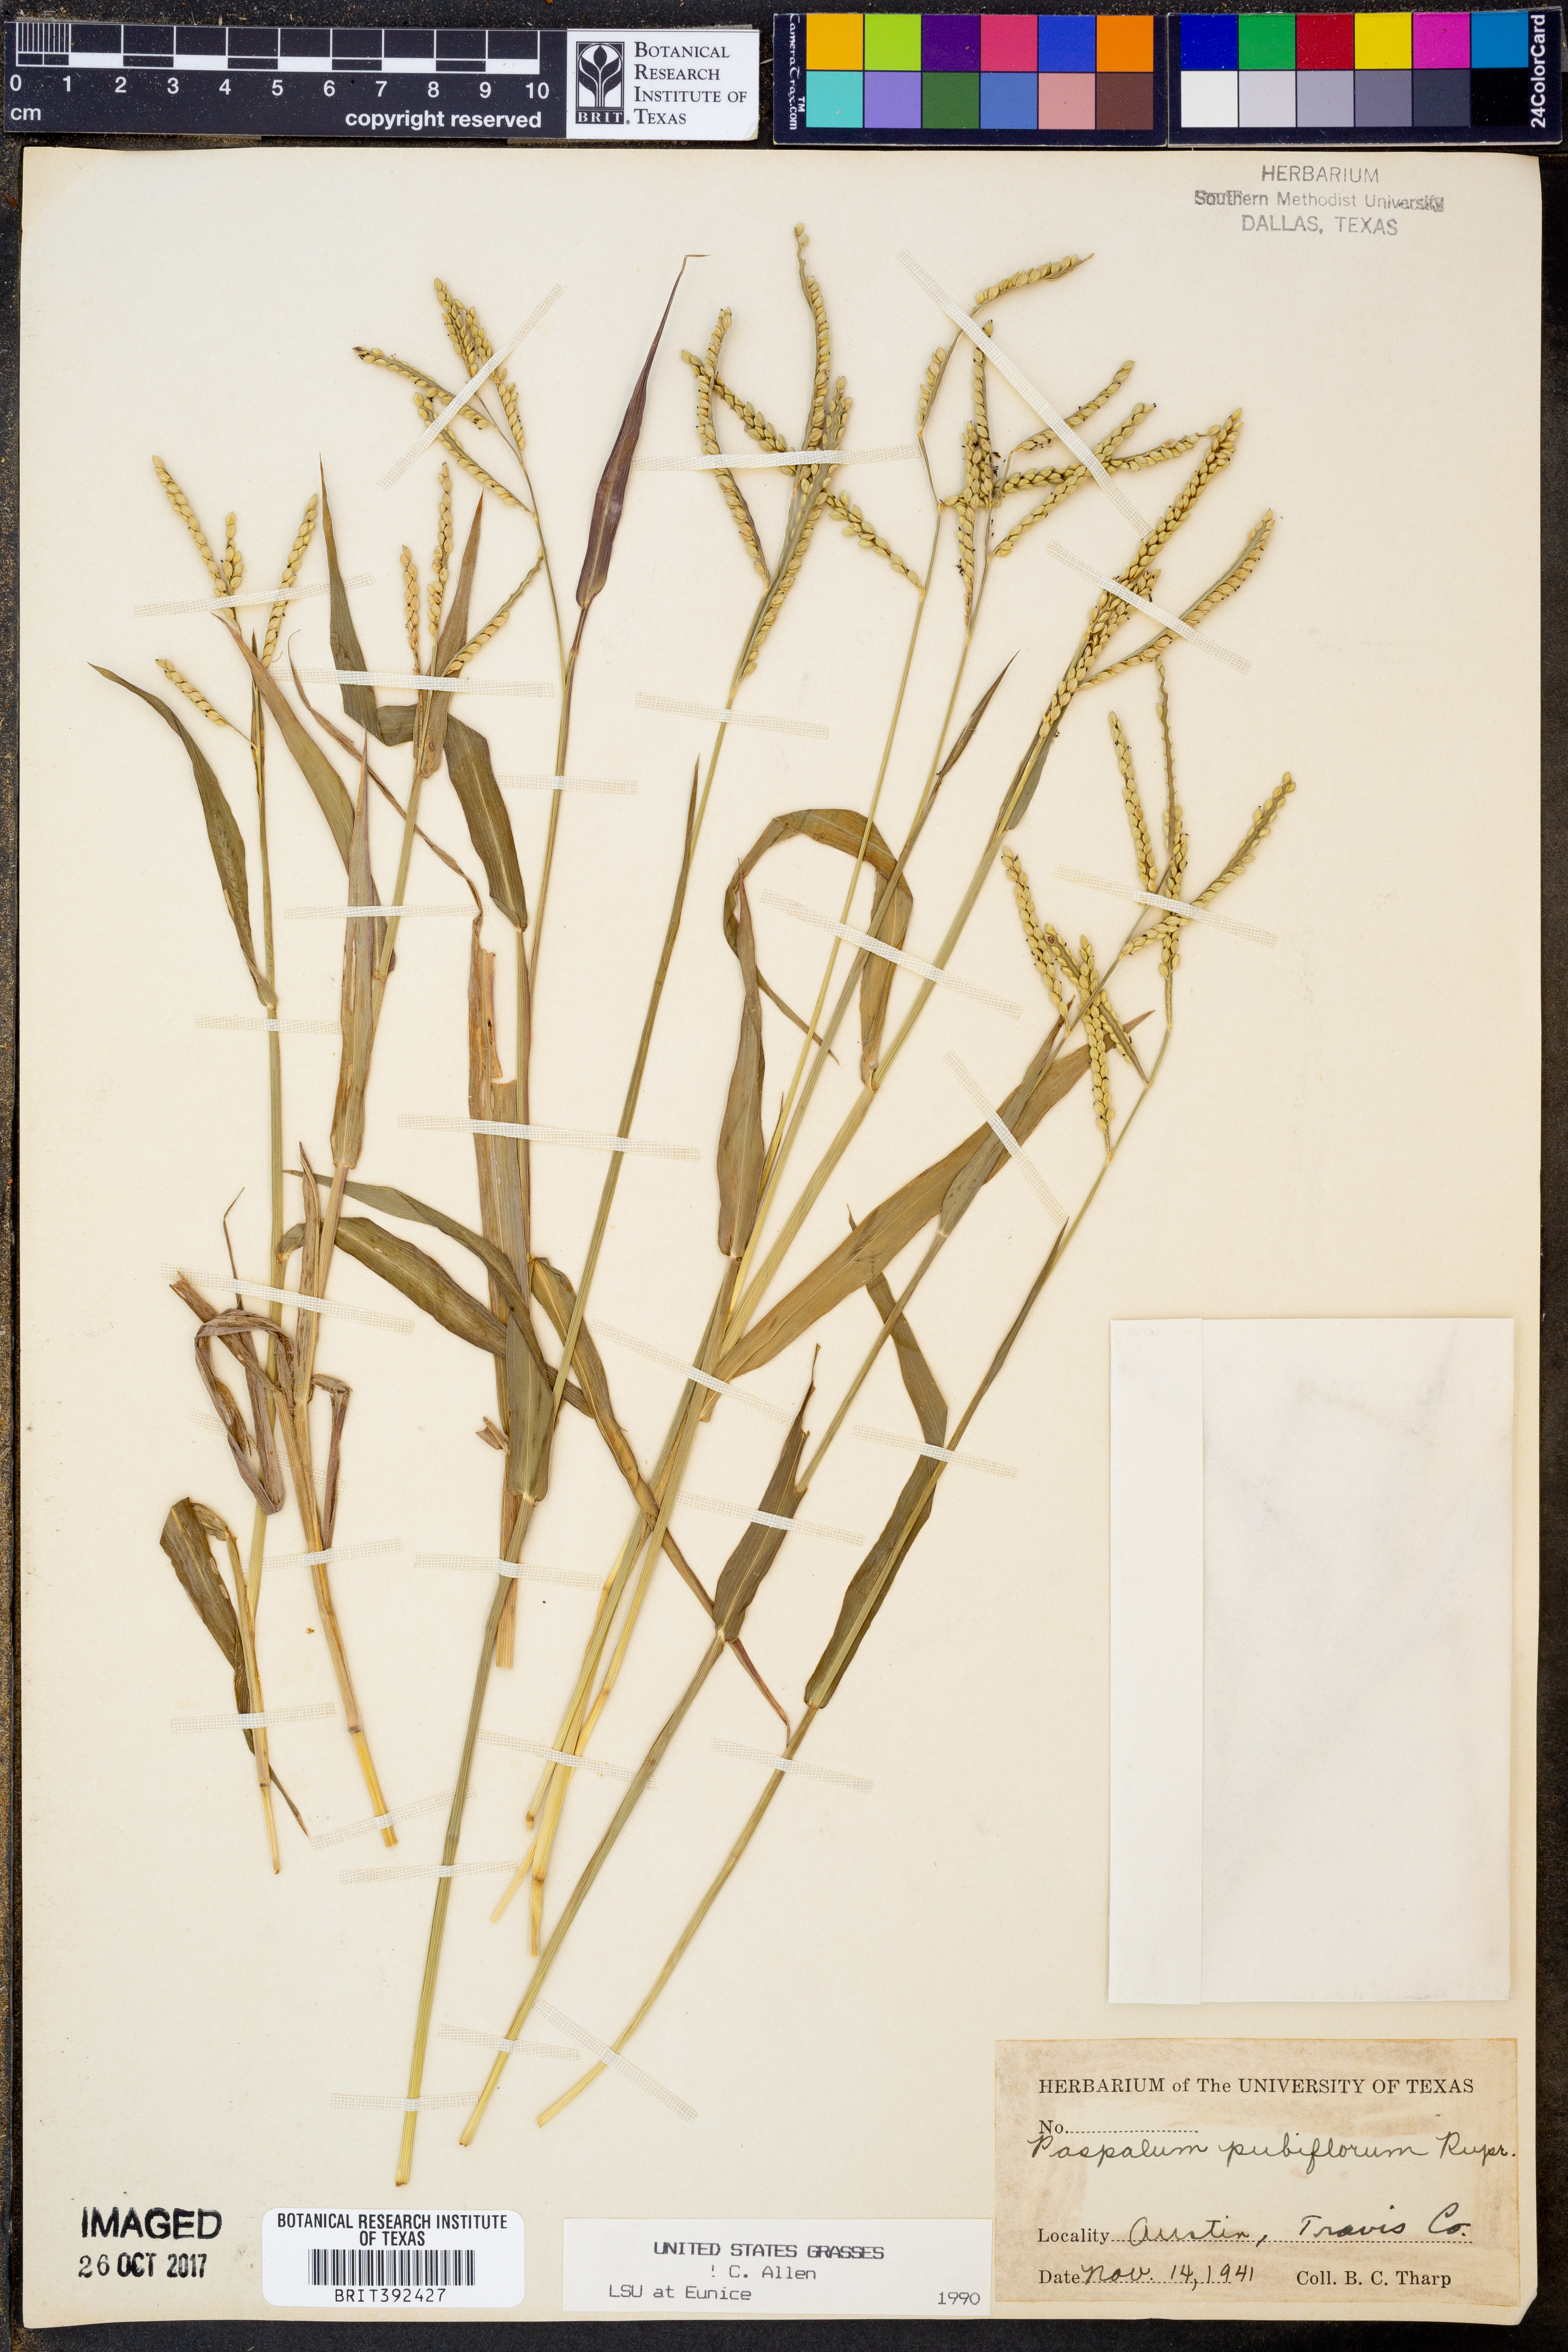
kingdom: Plantae
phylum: Tracheophyta
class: Liliopsida
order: Poales
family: Poaceae
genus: Paspalum
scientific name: Paspalum pubiflorum
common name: Hairy-seed paspalum
